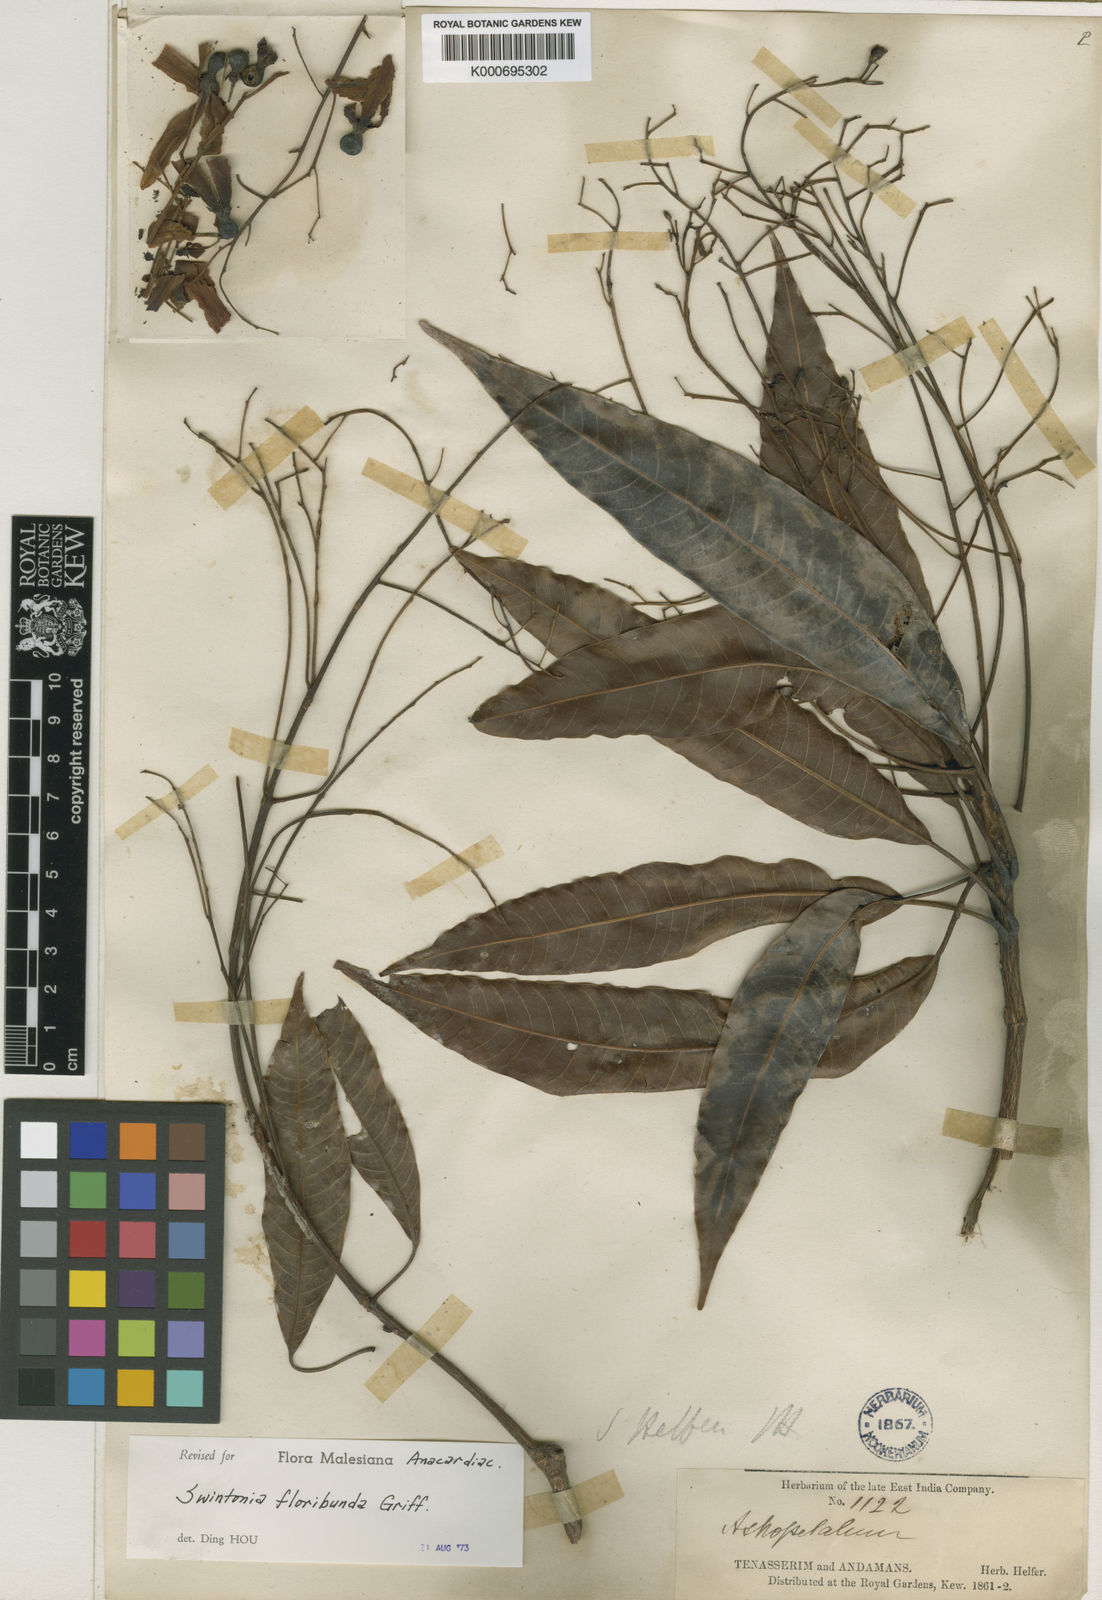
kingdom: Plantae
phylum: Tracheophyta
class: Magnoliopsida
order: Sapindales
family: Anacardiaceae
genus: Swintonia
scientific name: Swintonia floribunda
